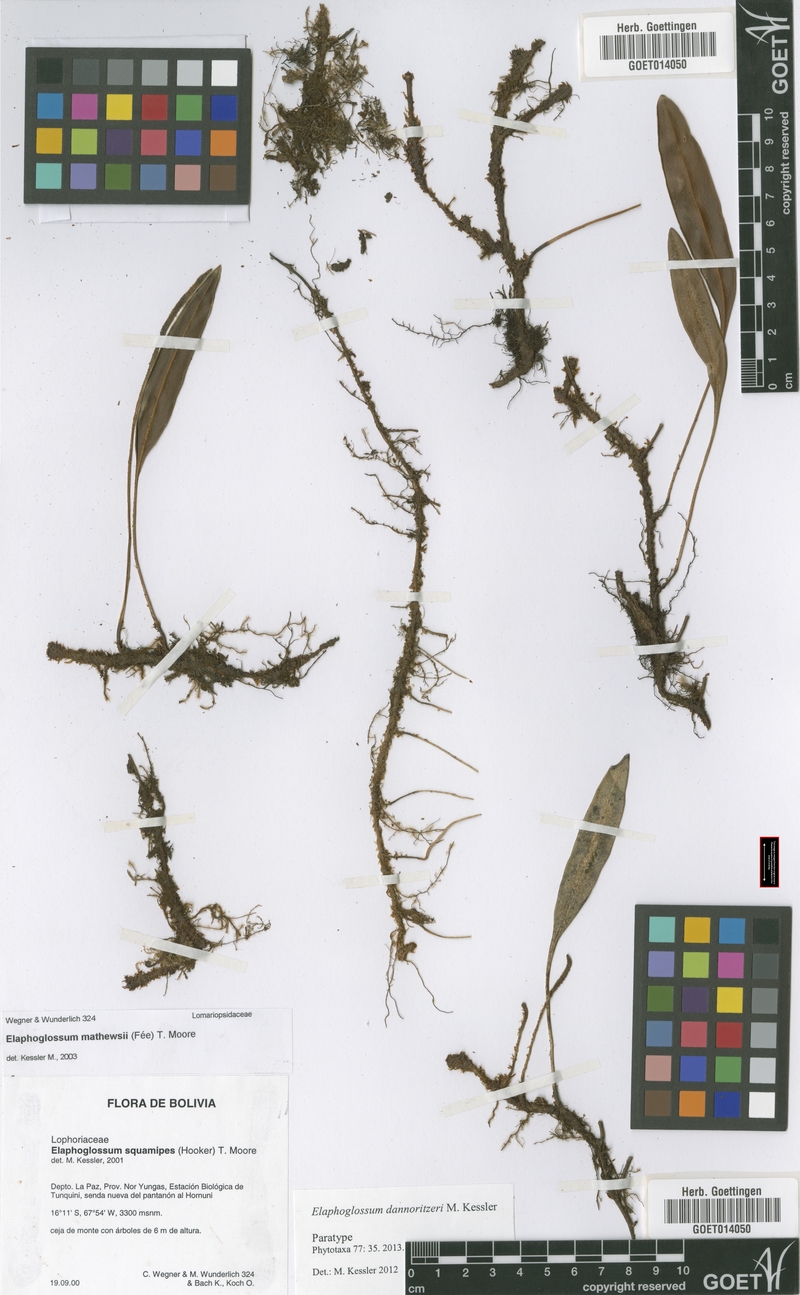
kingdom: Plantae
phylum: Tracheophyta
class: Polypodiopsida
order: Polypodiales
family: Dryopteridaceae
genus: Elaphoglossum
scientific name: Elaphoglossum dannoritzeri
